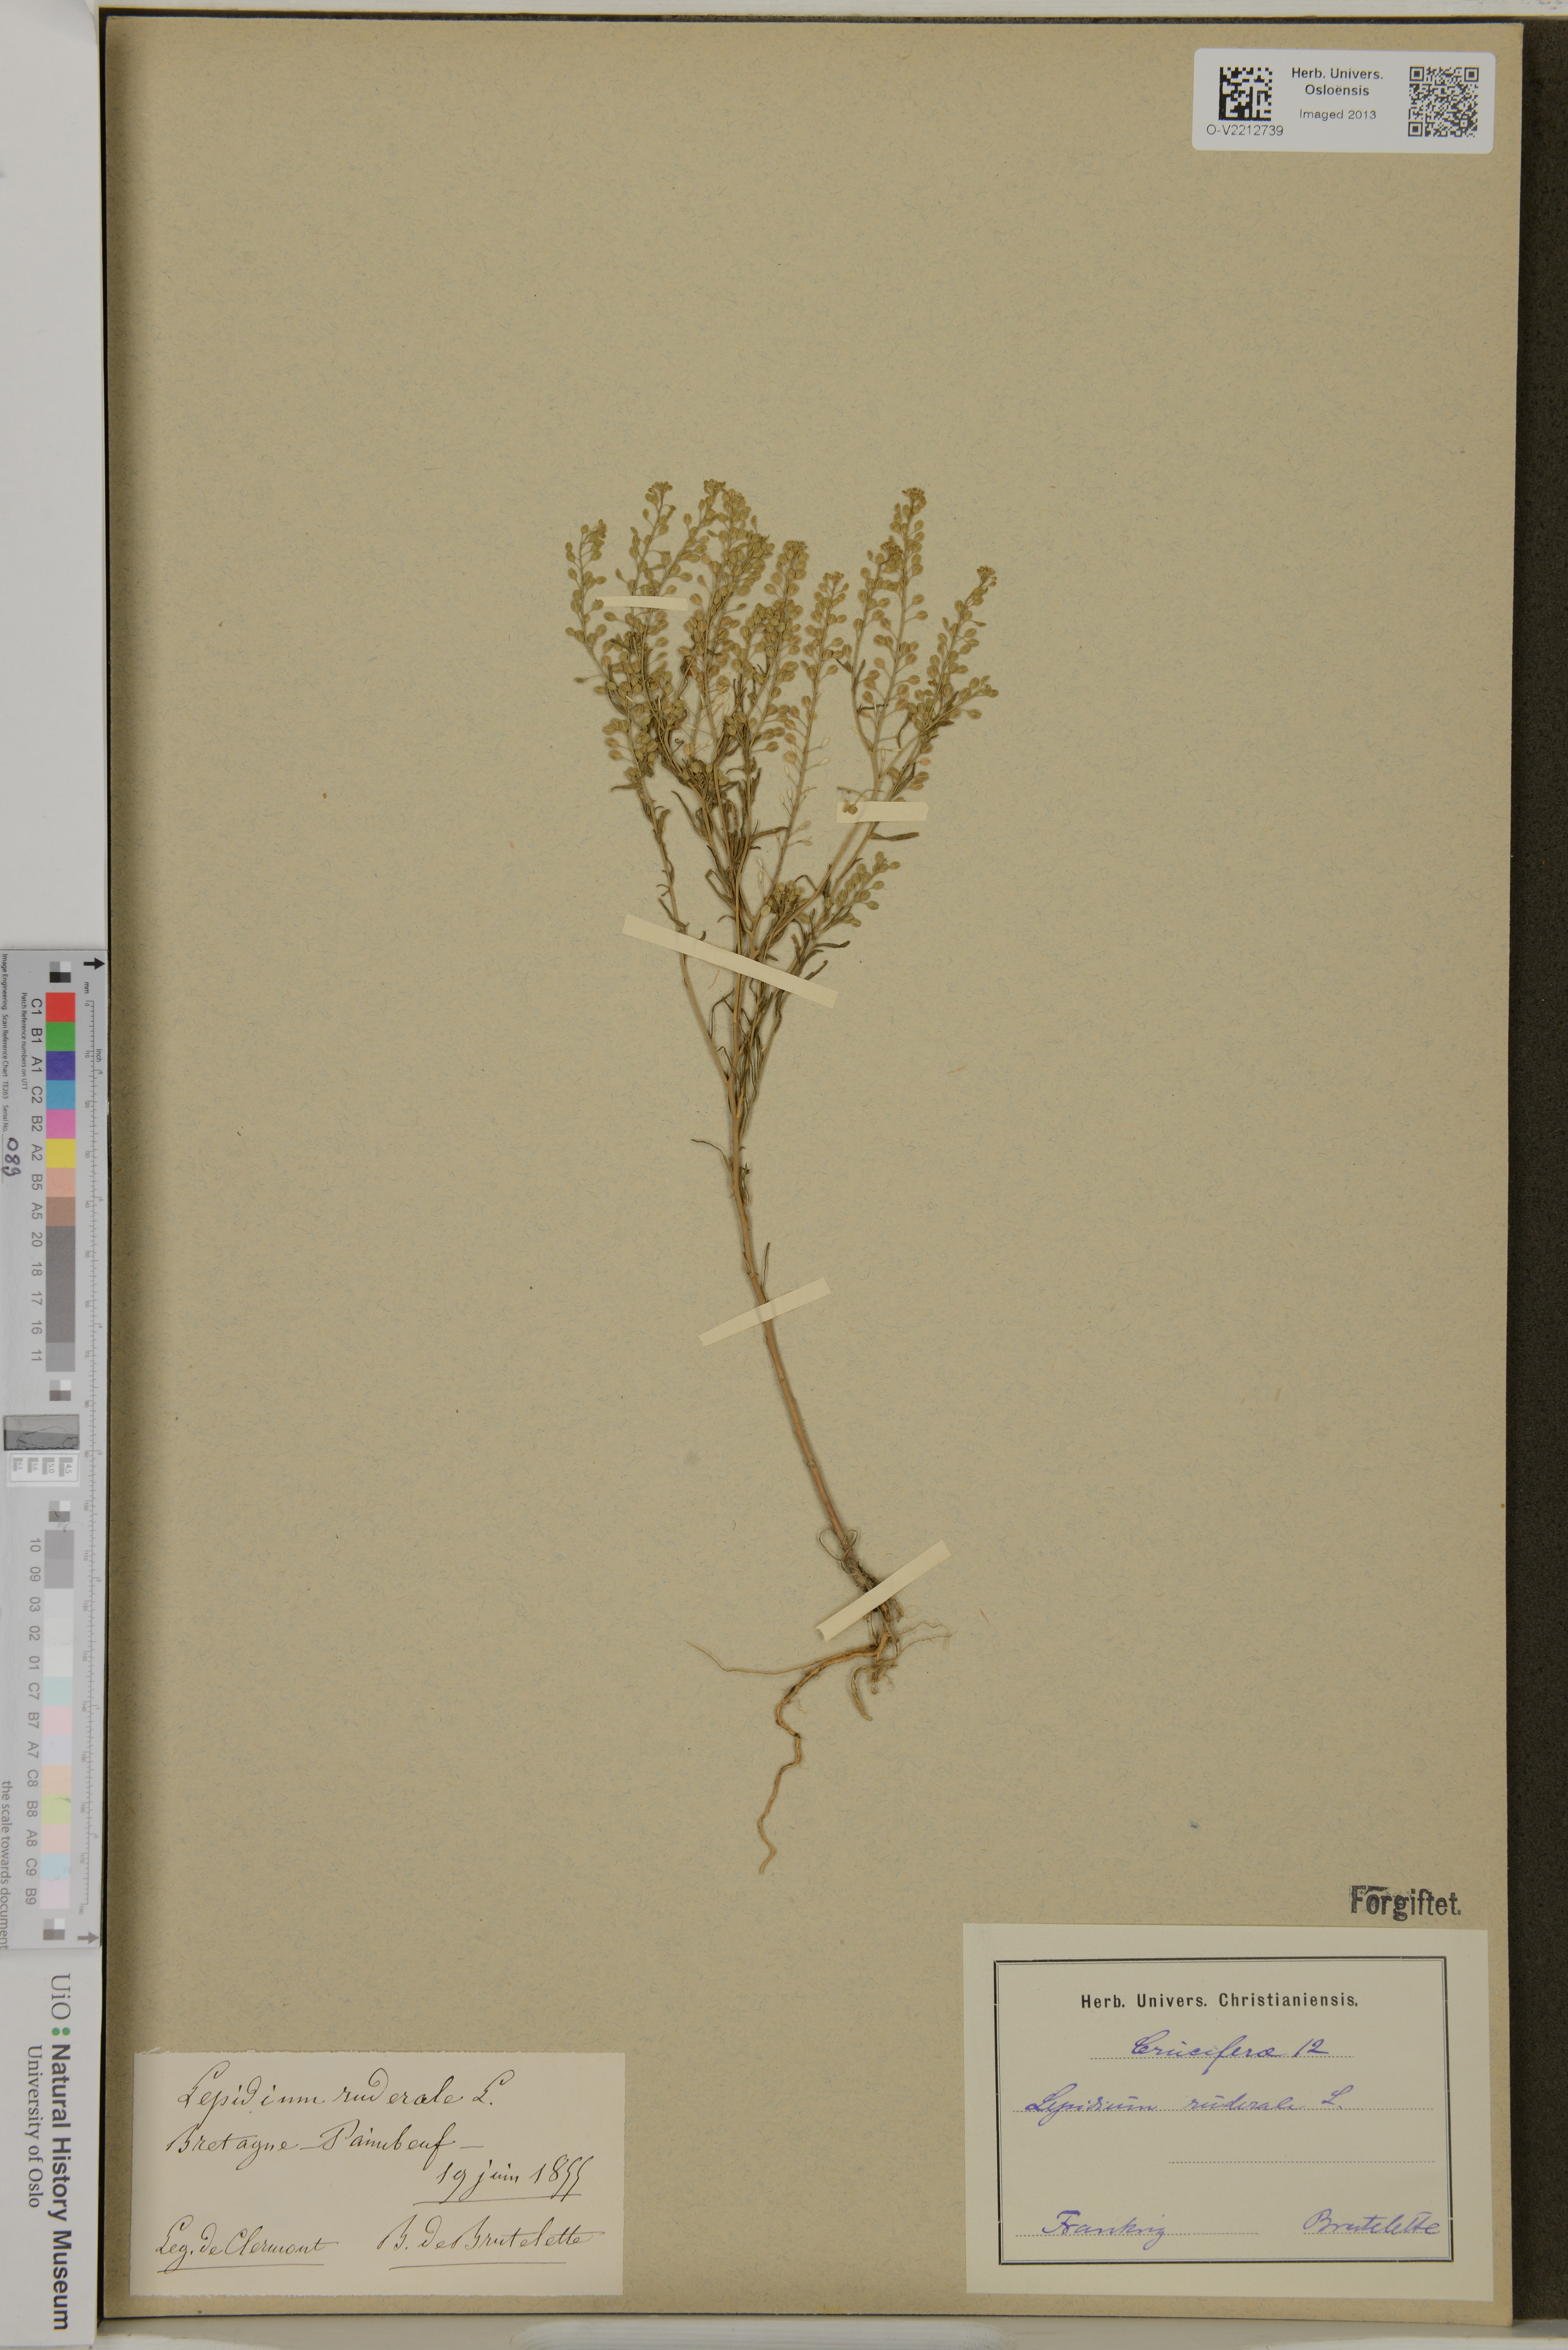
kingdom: Plantae
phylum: Tracheophyta
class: Magnoliopsida
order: Brassicales
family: Brassicaceae
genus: Lepidium
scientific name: Lepidium ruderale
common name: Narrow-leaved pepperwort
